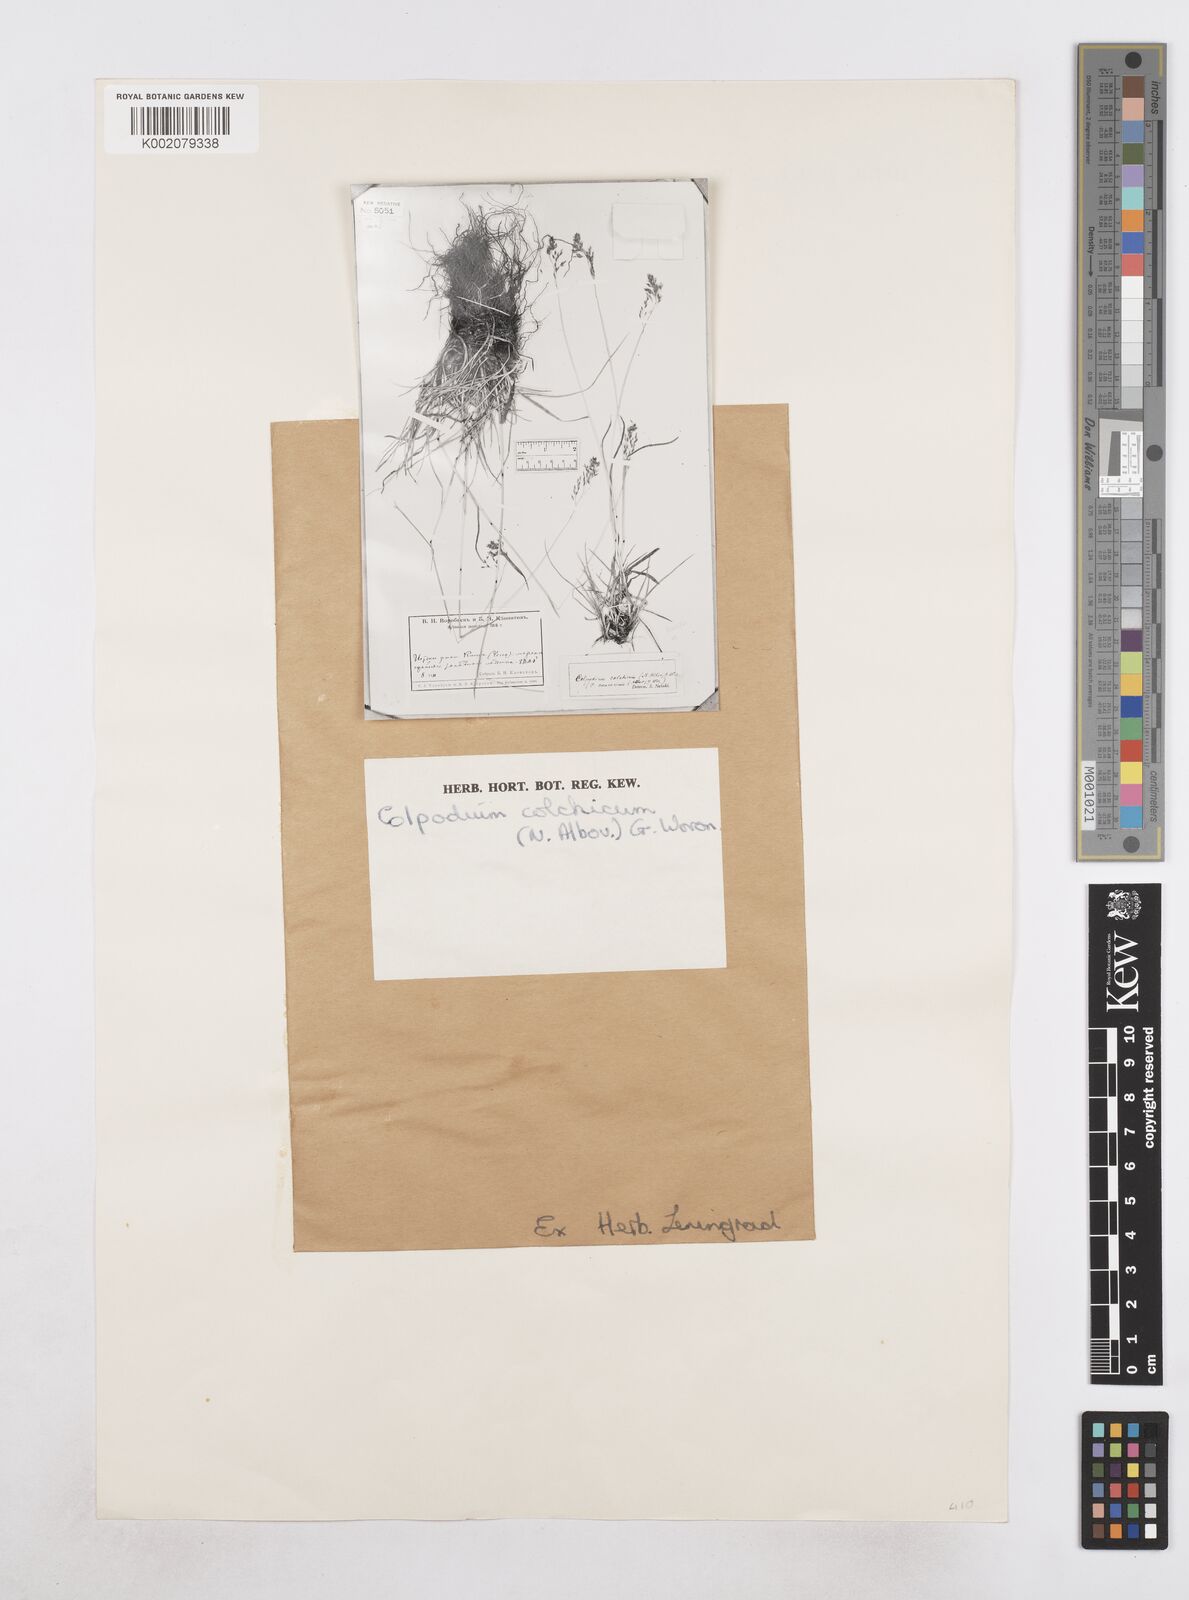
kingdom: Plantae
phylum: Tracheophyta
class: Liliopsida
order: Poales
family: Poaceae
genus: Paracolpodium
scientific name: Paracolpodium colchicum
